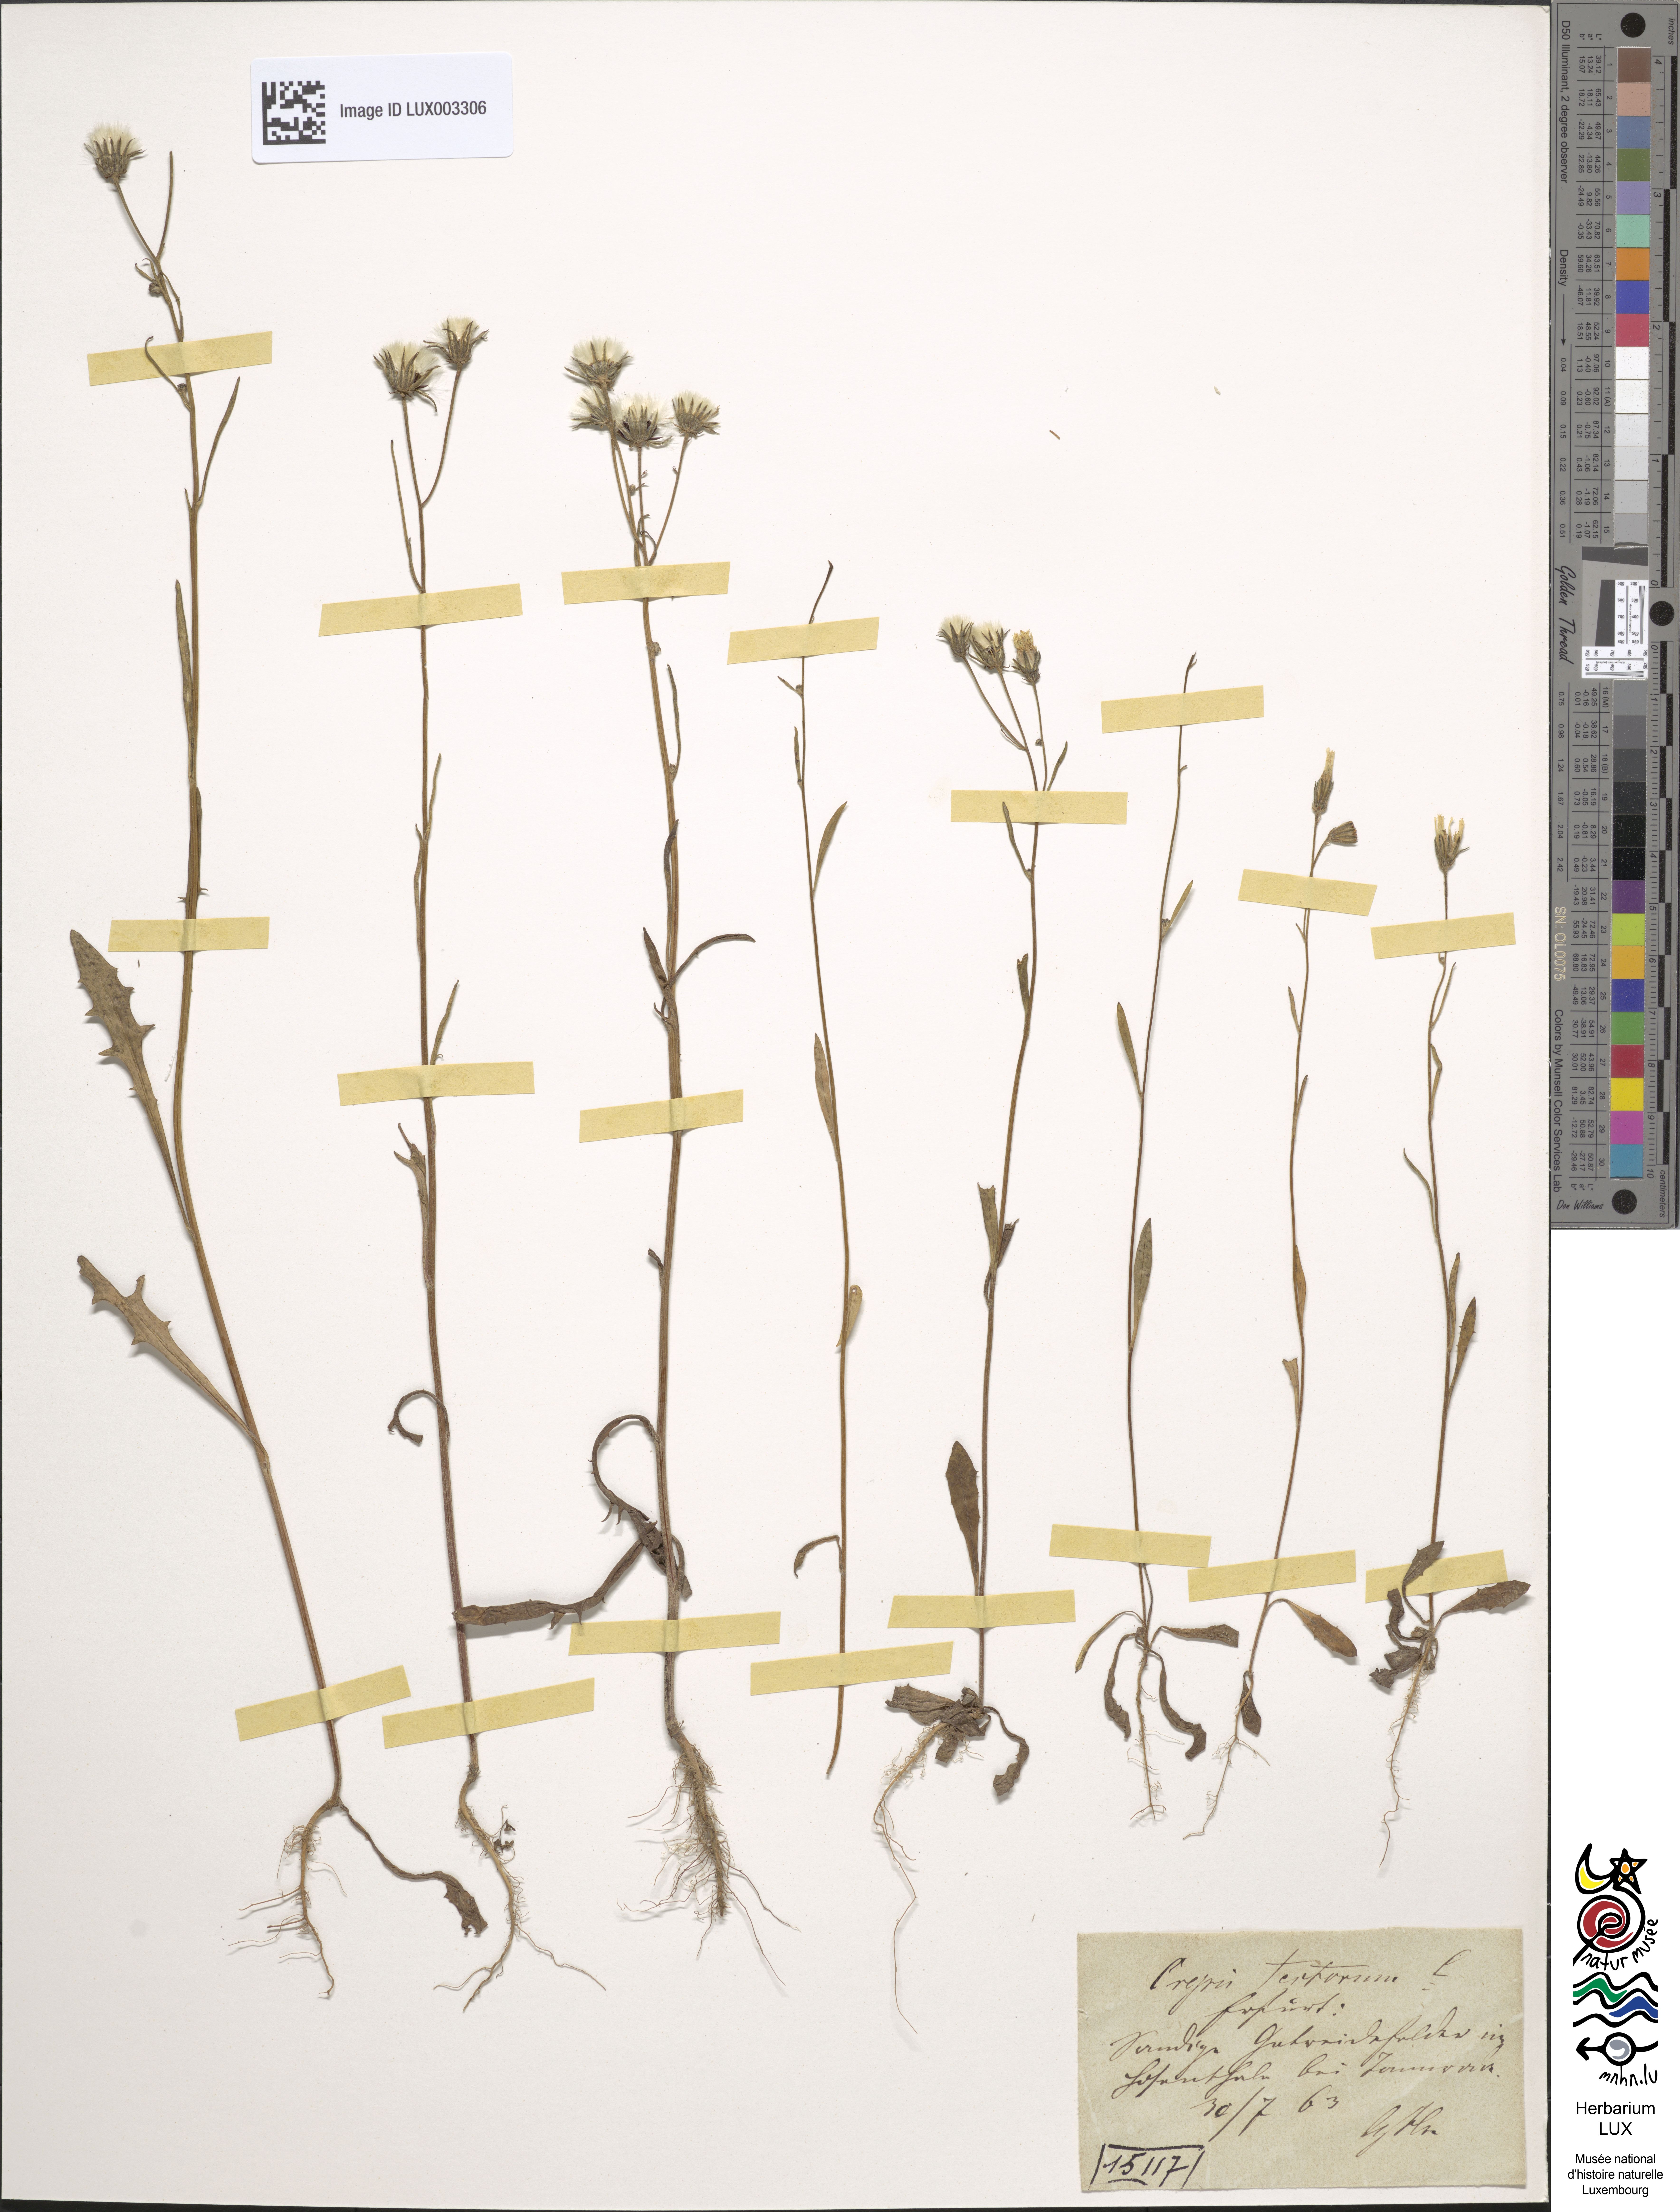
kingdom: Plantae
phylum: Tracheophyta
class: Magnoliopsida
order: Asterales
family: Asteraceae
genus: Crepis
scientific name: Crepis tectorum
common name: Narrow-leaved hawk's-beard
